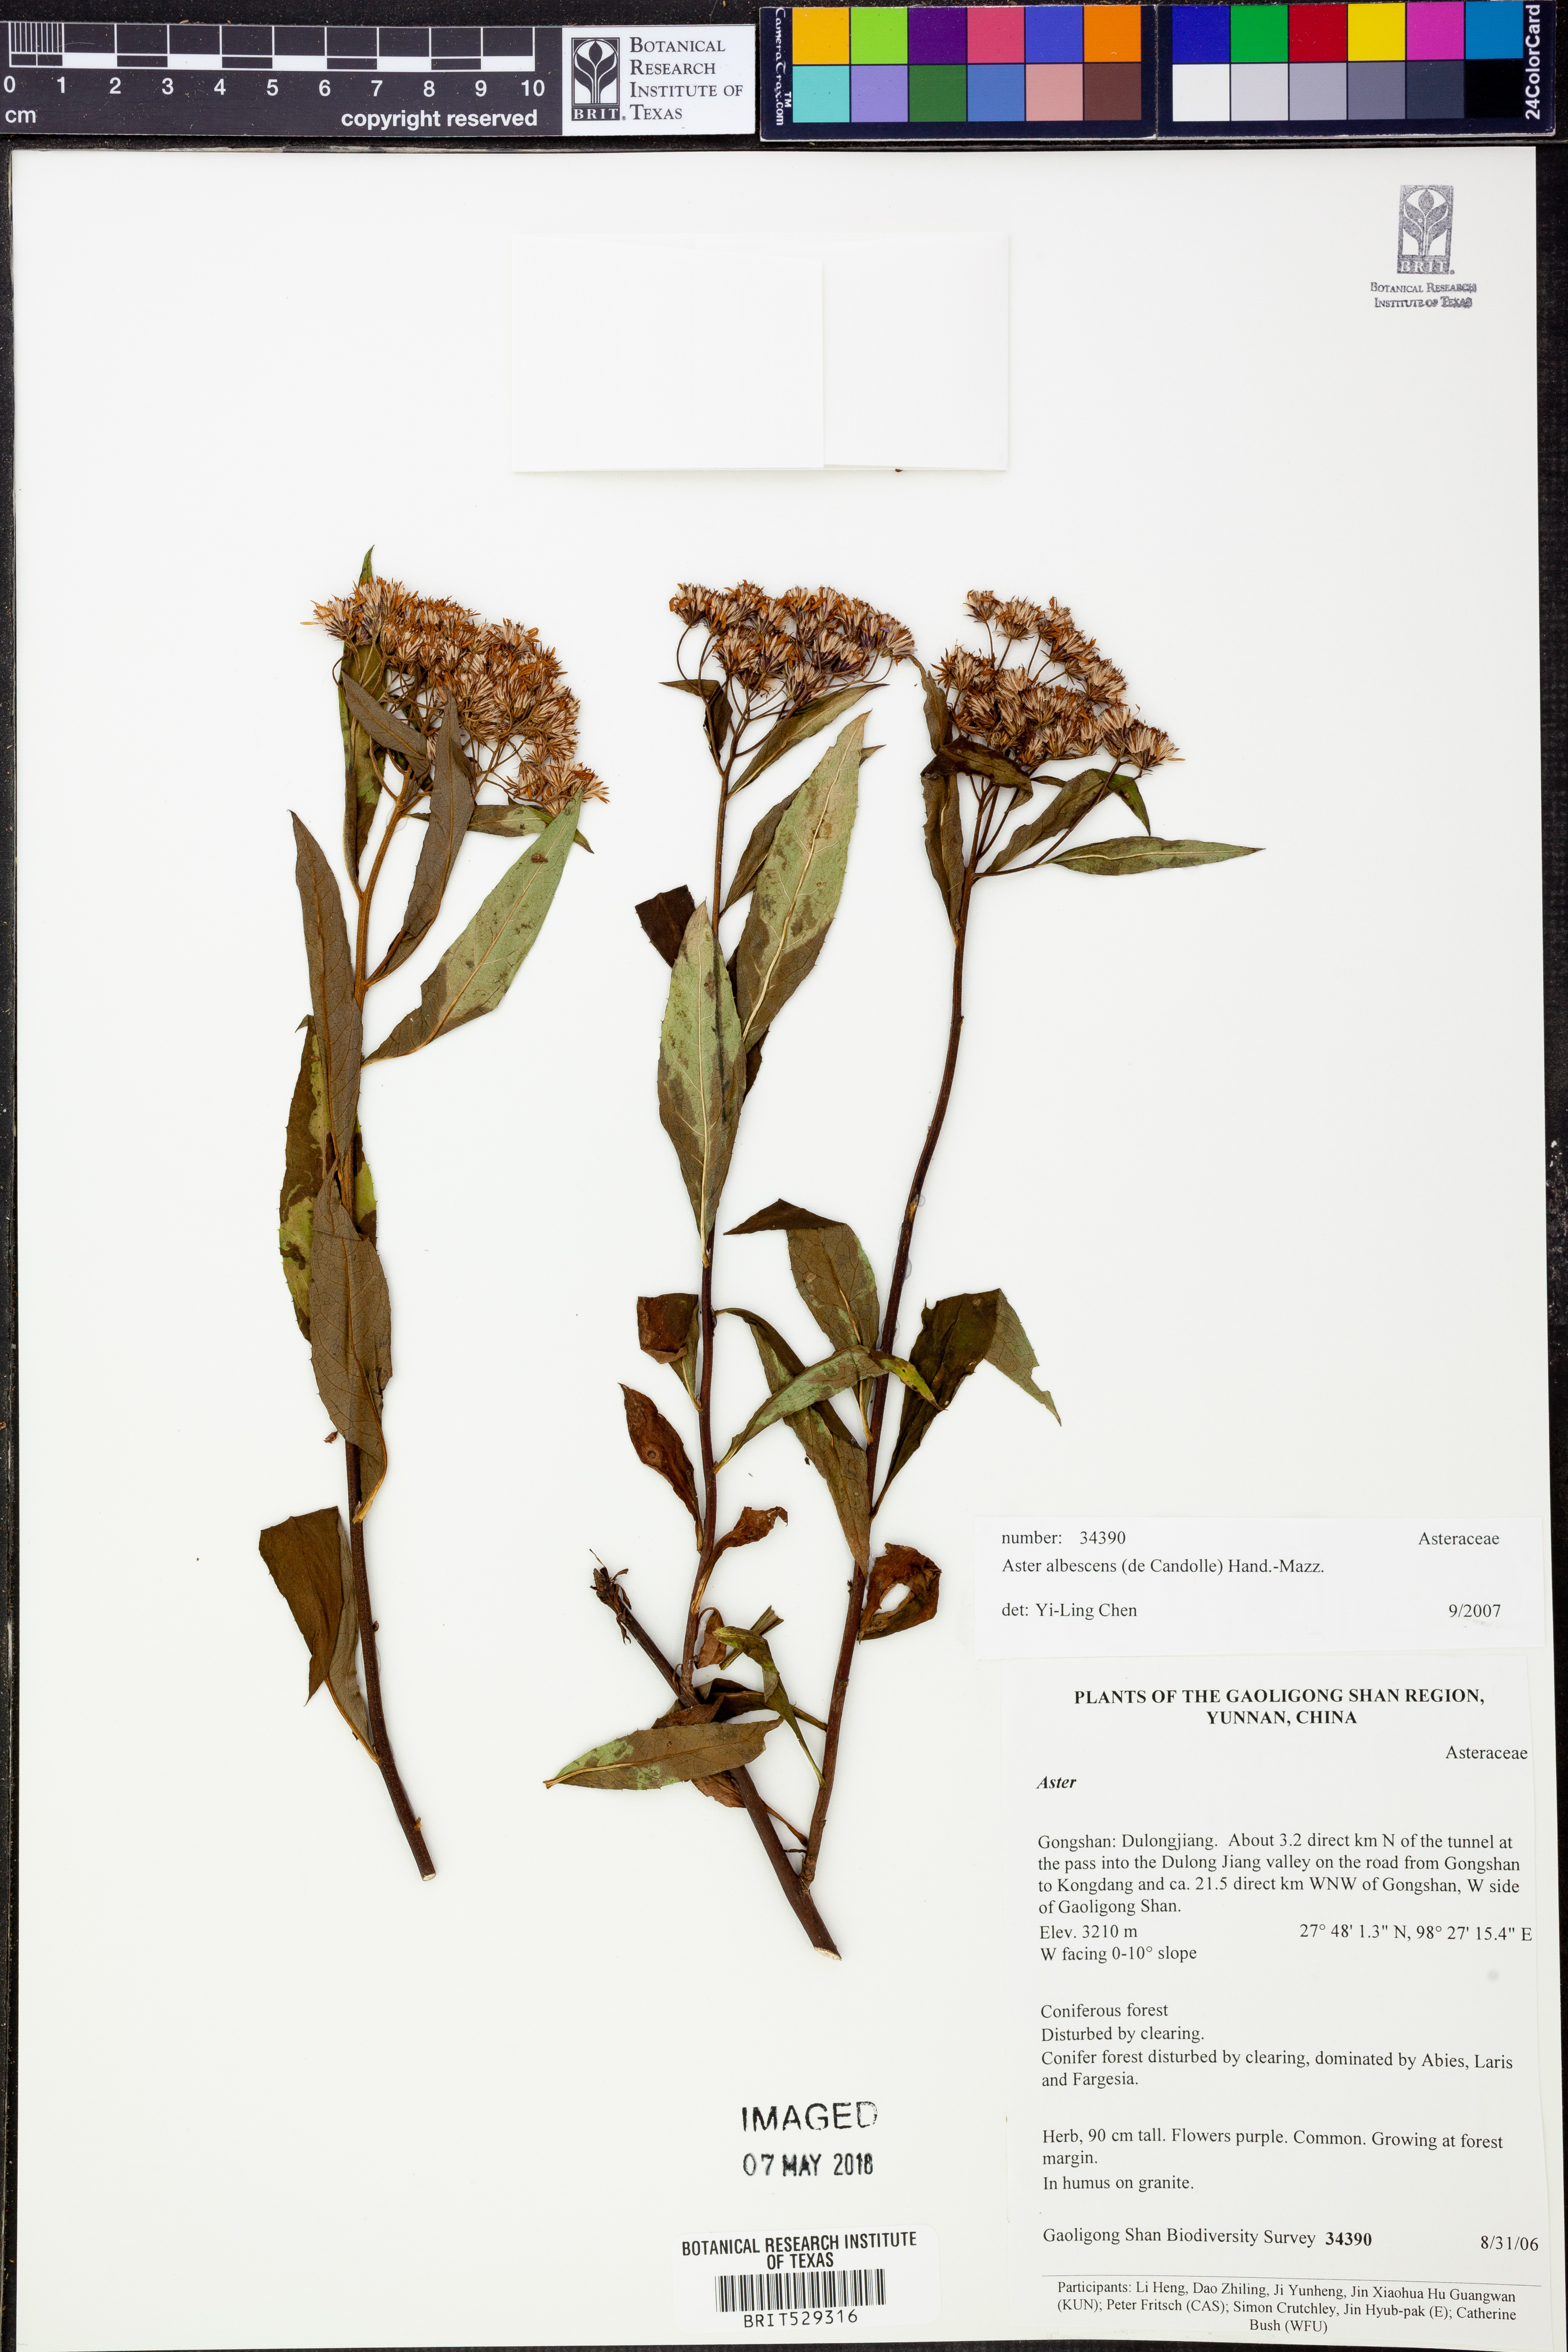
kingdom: Plantae
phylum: Tracheophyta
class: Magnoliopsida
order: Asterales
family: Asteraceae
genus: Sinosidus
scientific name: Sinosidus albescens
